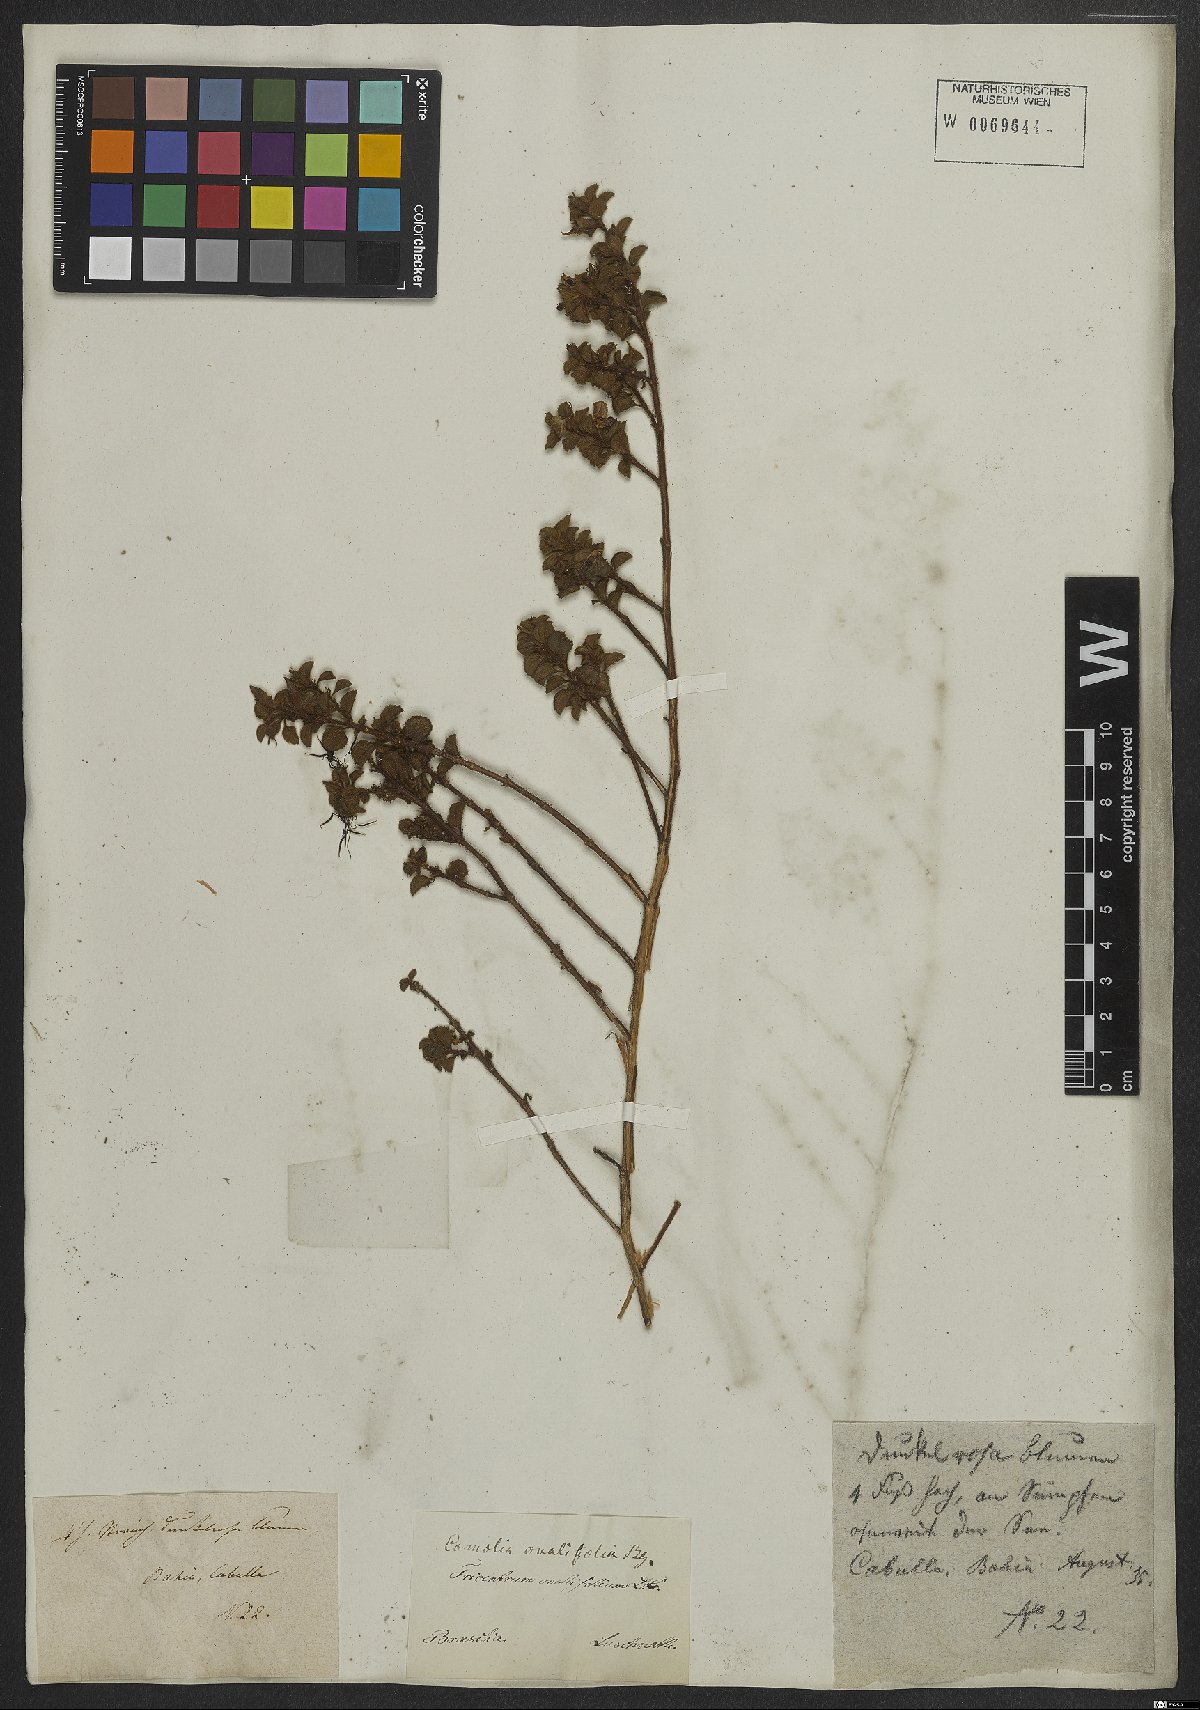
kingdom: Plantae
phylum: Tracheophyta
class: Magnoliopsida
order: Myrtales
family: Melastomataceae
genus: Comolia
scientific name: Comolia ovalifolia
